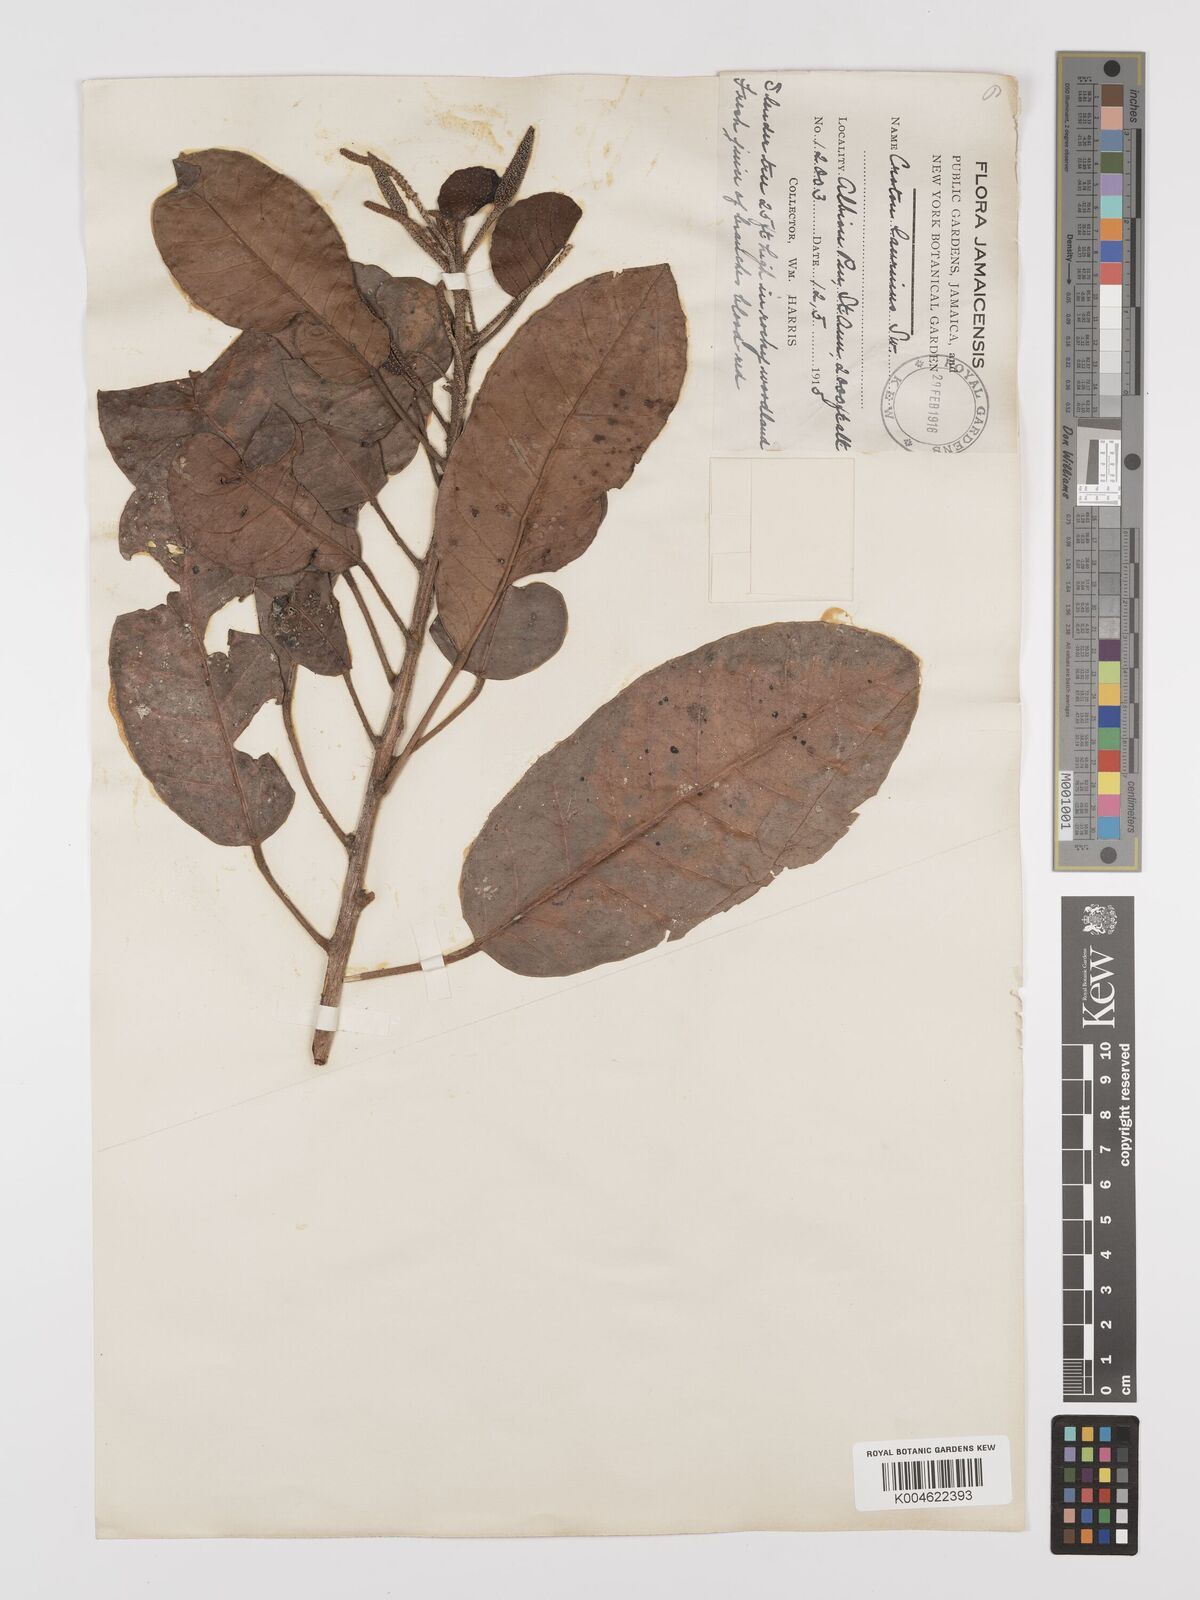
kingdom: Plantae
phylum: Tracheophyta
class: Magnoliopsida
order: Malpighiales
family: Euphorbiaceae
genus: Croton
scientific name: Croton laurinus
